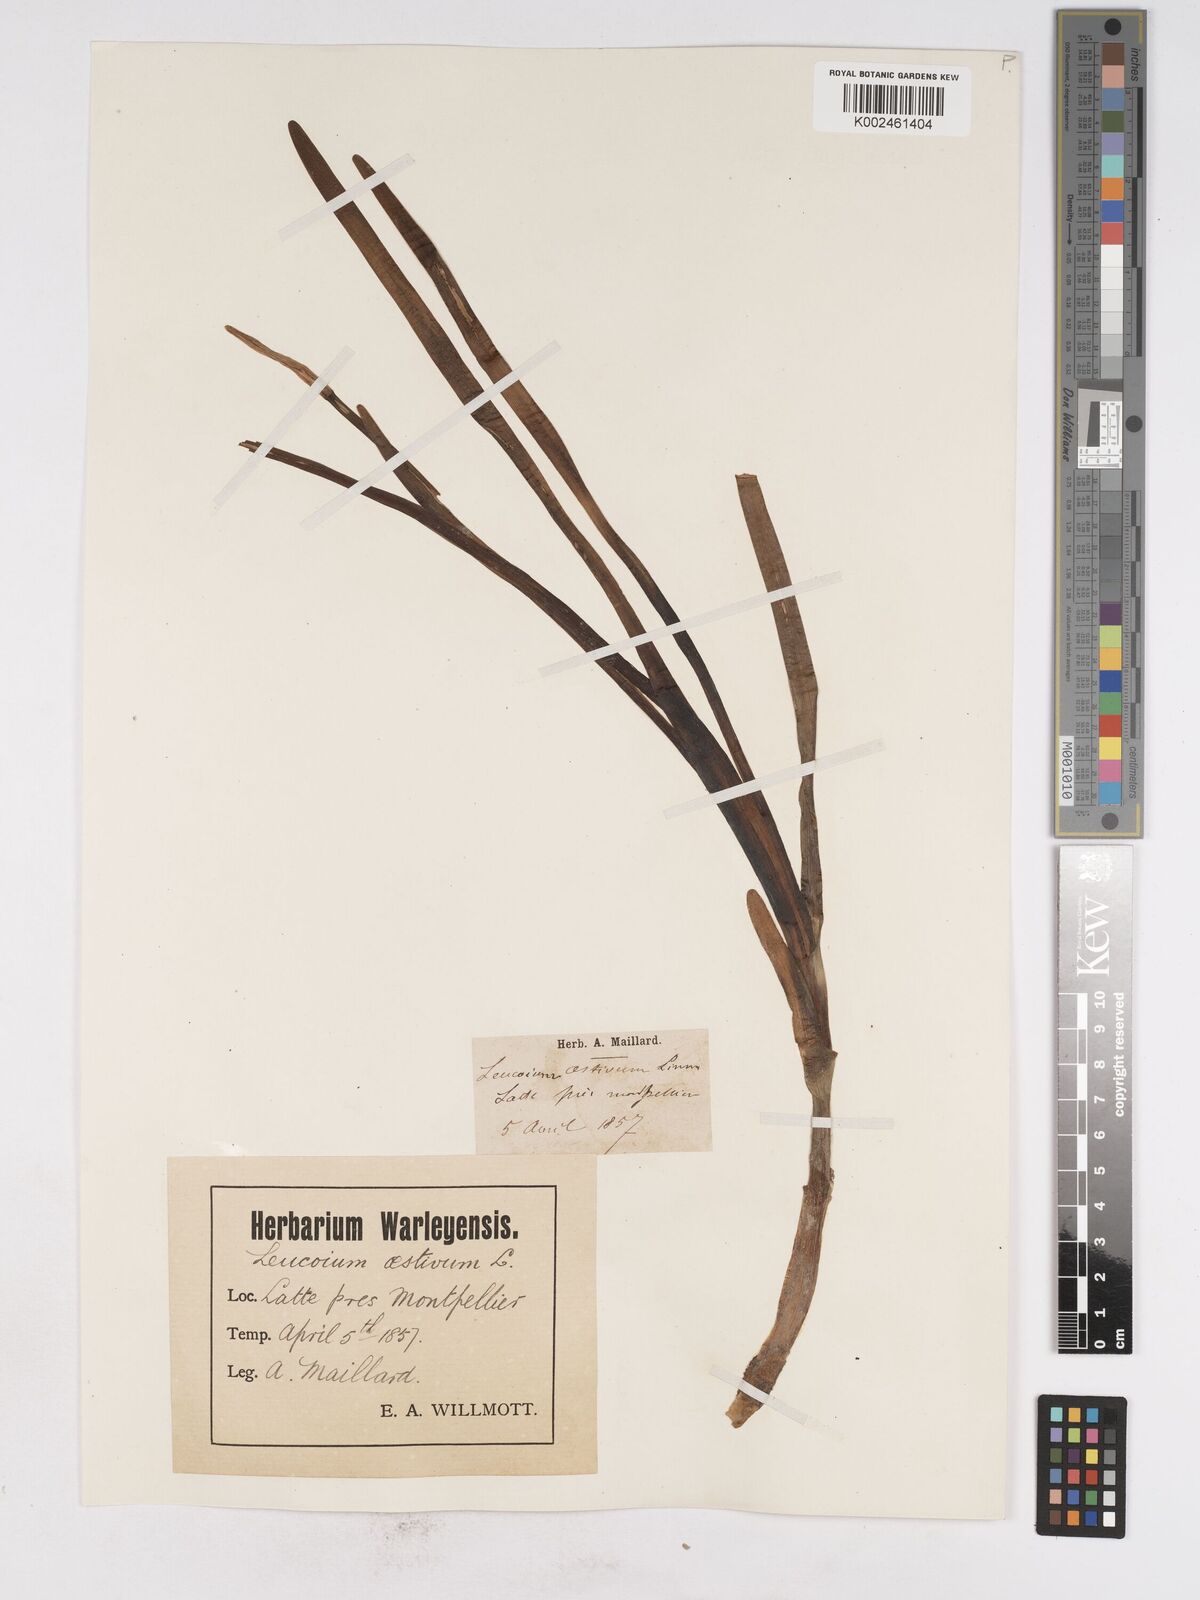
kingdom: Plantae
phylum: Tracheophyta
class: Liliopsida
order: Asparagales
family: Amaryllidaceae
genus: Leucojum
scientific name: Leucojum aestivum
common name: Summer snowflake
